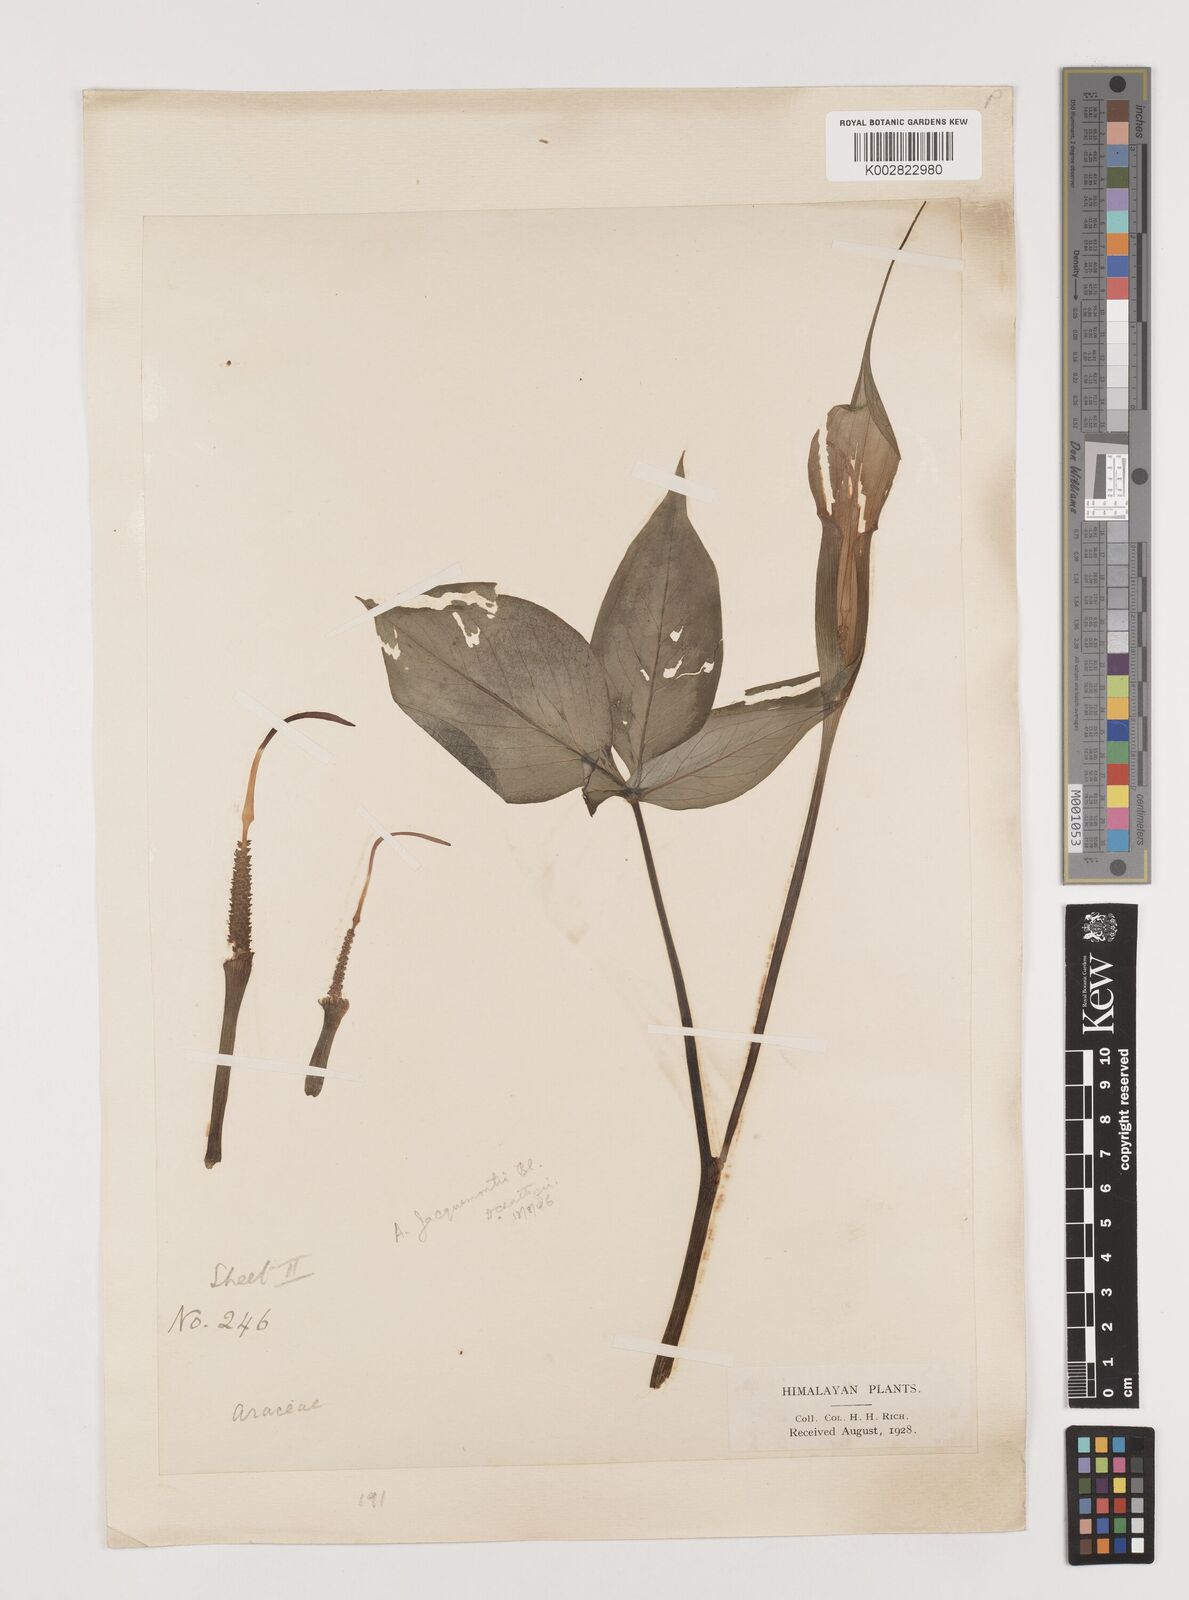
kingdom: Plantae
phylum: Tracheophyta
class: Liliopsida
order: Alismatales
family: Araceae
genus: Arisaema
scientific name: Arisaema jacquemontii
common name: Jacquemont's cobra-lily
